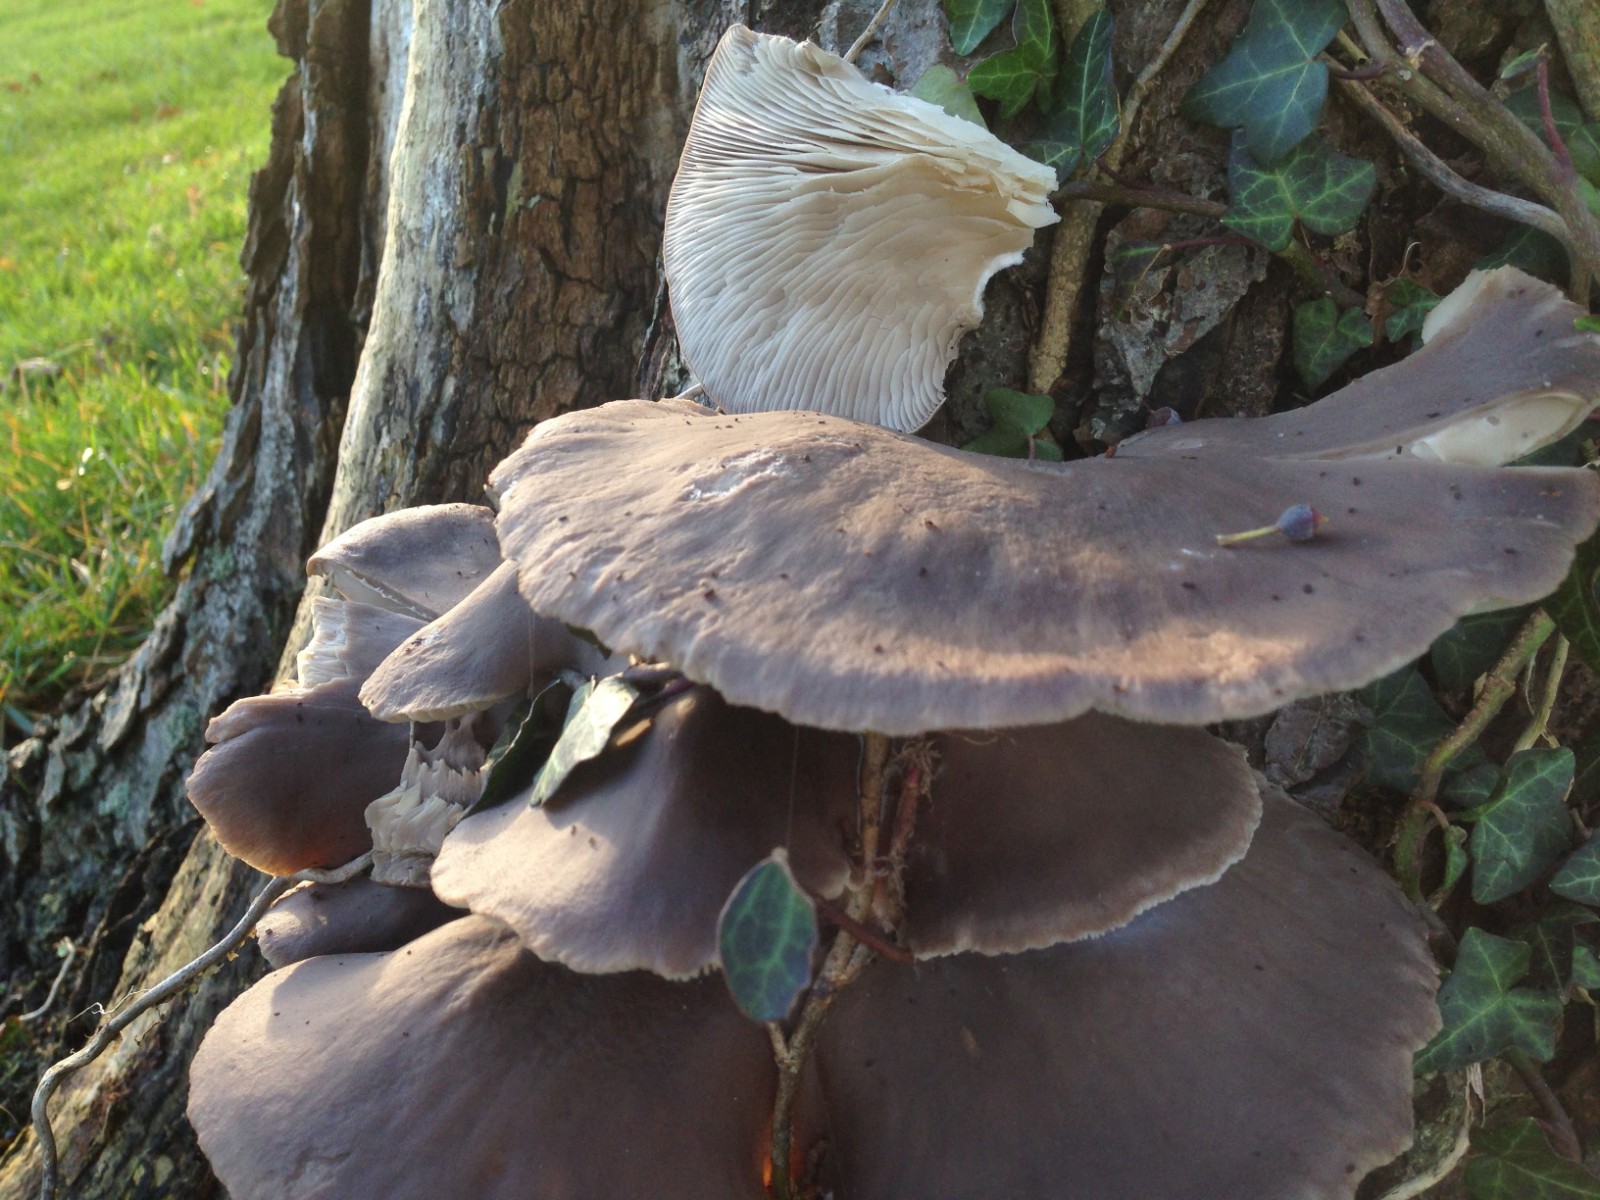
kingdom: Fungi
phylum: Basidiomycota
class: Agaricomycetes
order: Agaricales
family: Pleurotaceae
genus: Pleurotus
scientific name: Pleurotus ostreatus
